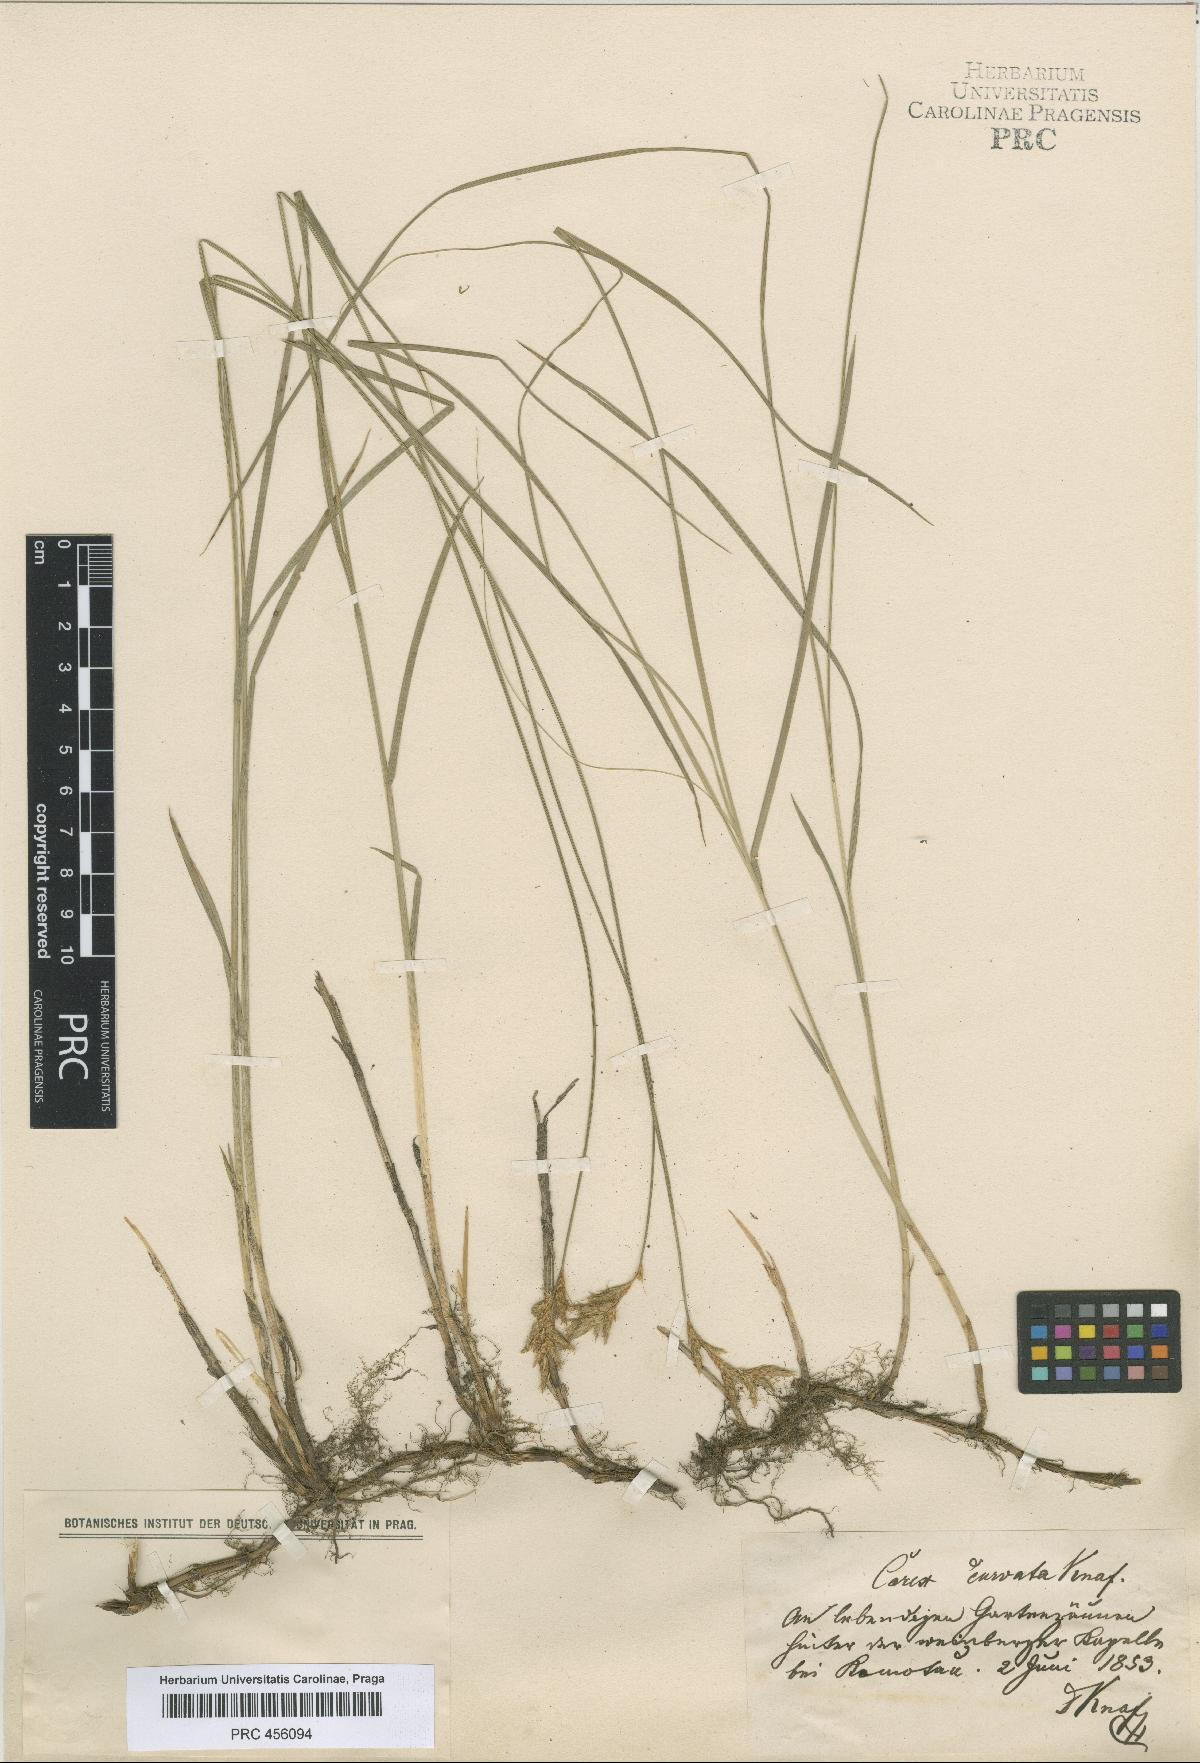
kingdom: Plantae
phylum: Tracheophyta
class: Liliopsida
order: Poales
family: Cyperaceae
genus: Carex
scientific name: Carex curvata
